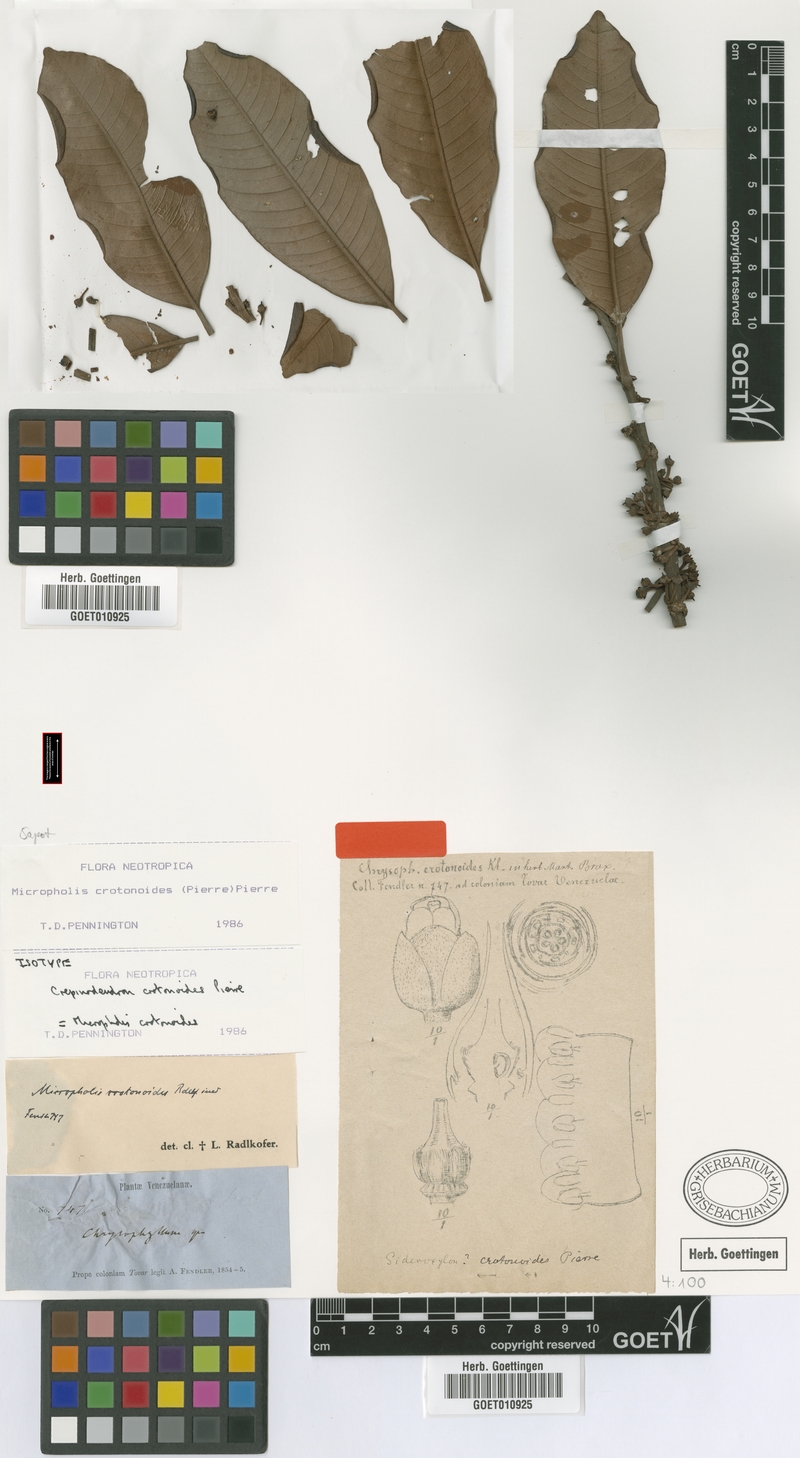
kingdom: Plantae
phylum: Tracheophyta
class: Magnoliopsida
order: Ericales
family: Sapotaceae
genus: Micropholis
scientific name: Micropholis crotonoides
